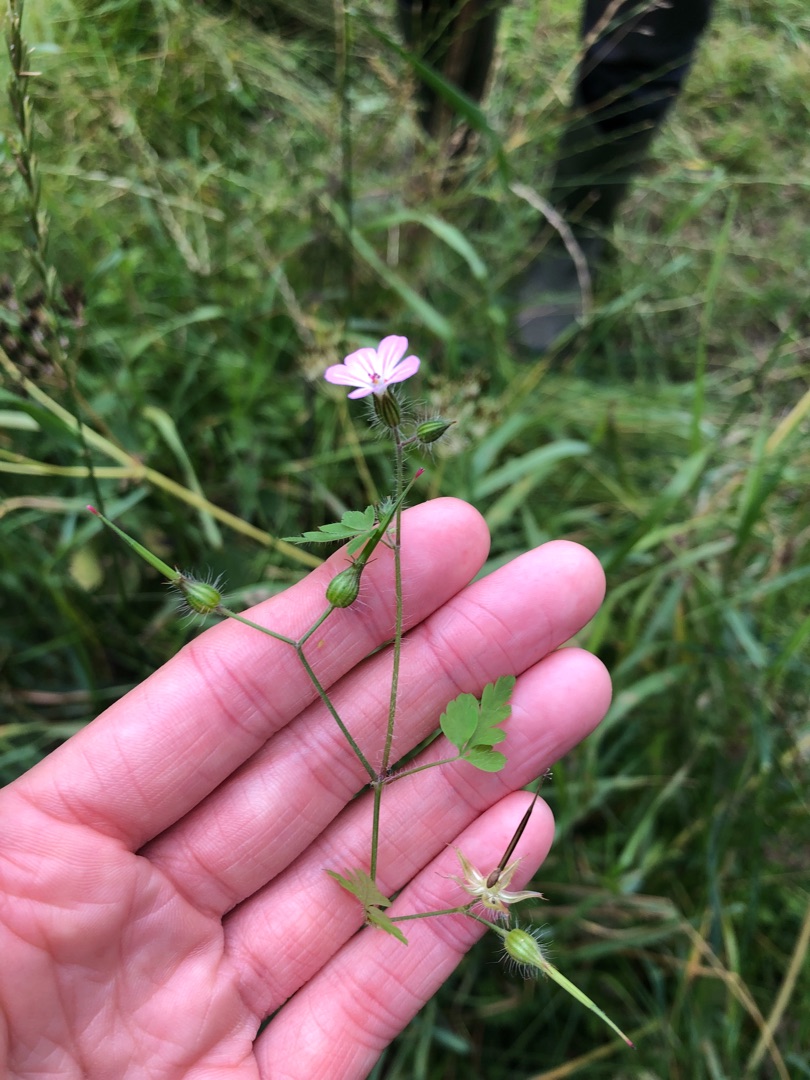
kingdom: Plantae
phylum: Tracheophyta
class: Magnoliopsida
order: Geraniales
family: Geraniaceae
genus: Geranium
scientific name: Geranium robertianum
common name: Stinkende storkenæb
